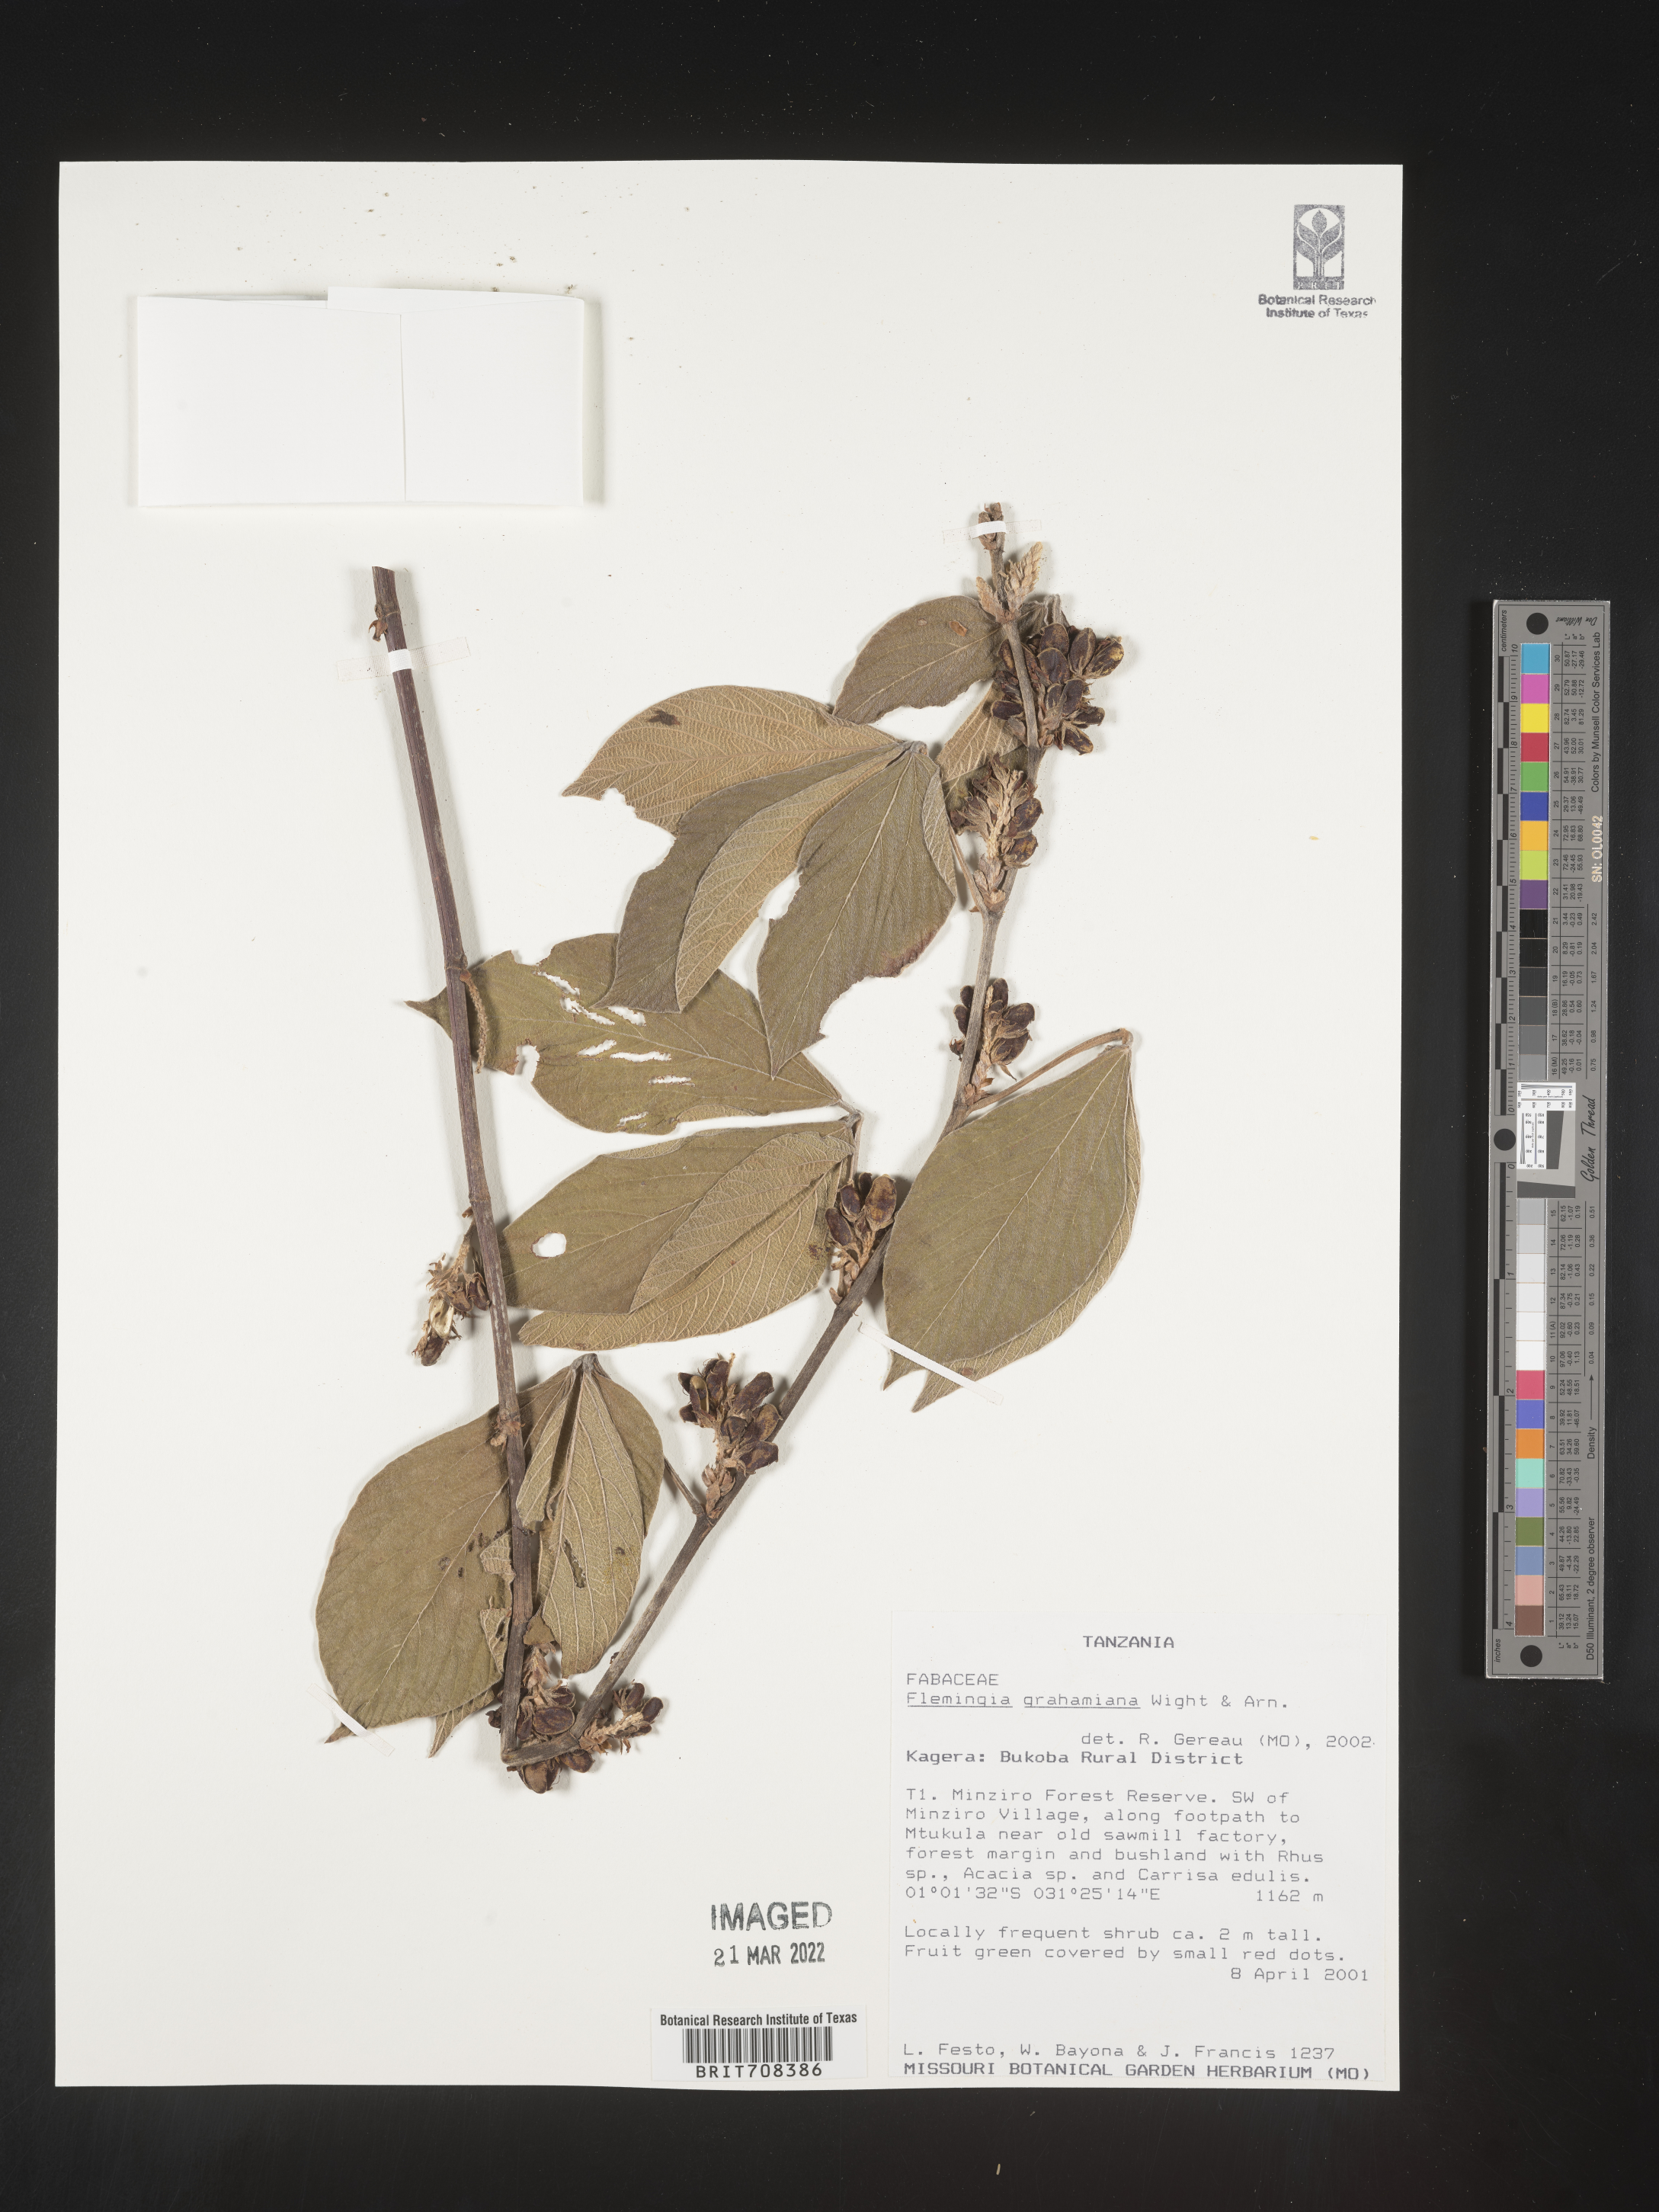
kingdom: Plantae
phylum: Tracheophyta
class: Magnoliopsida
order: Fabales
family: Fabaceae
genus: Flemingia
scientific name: Flemingia
